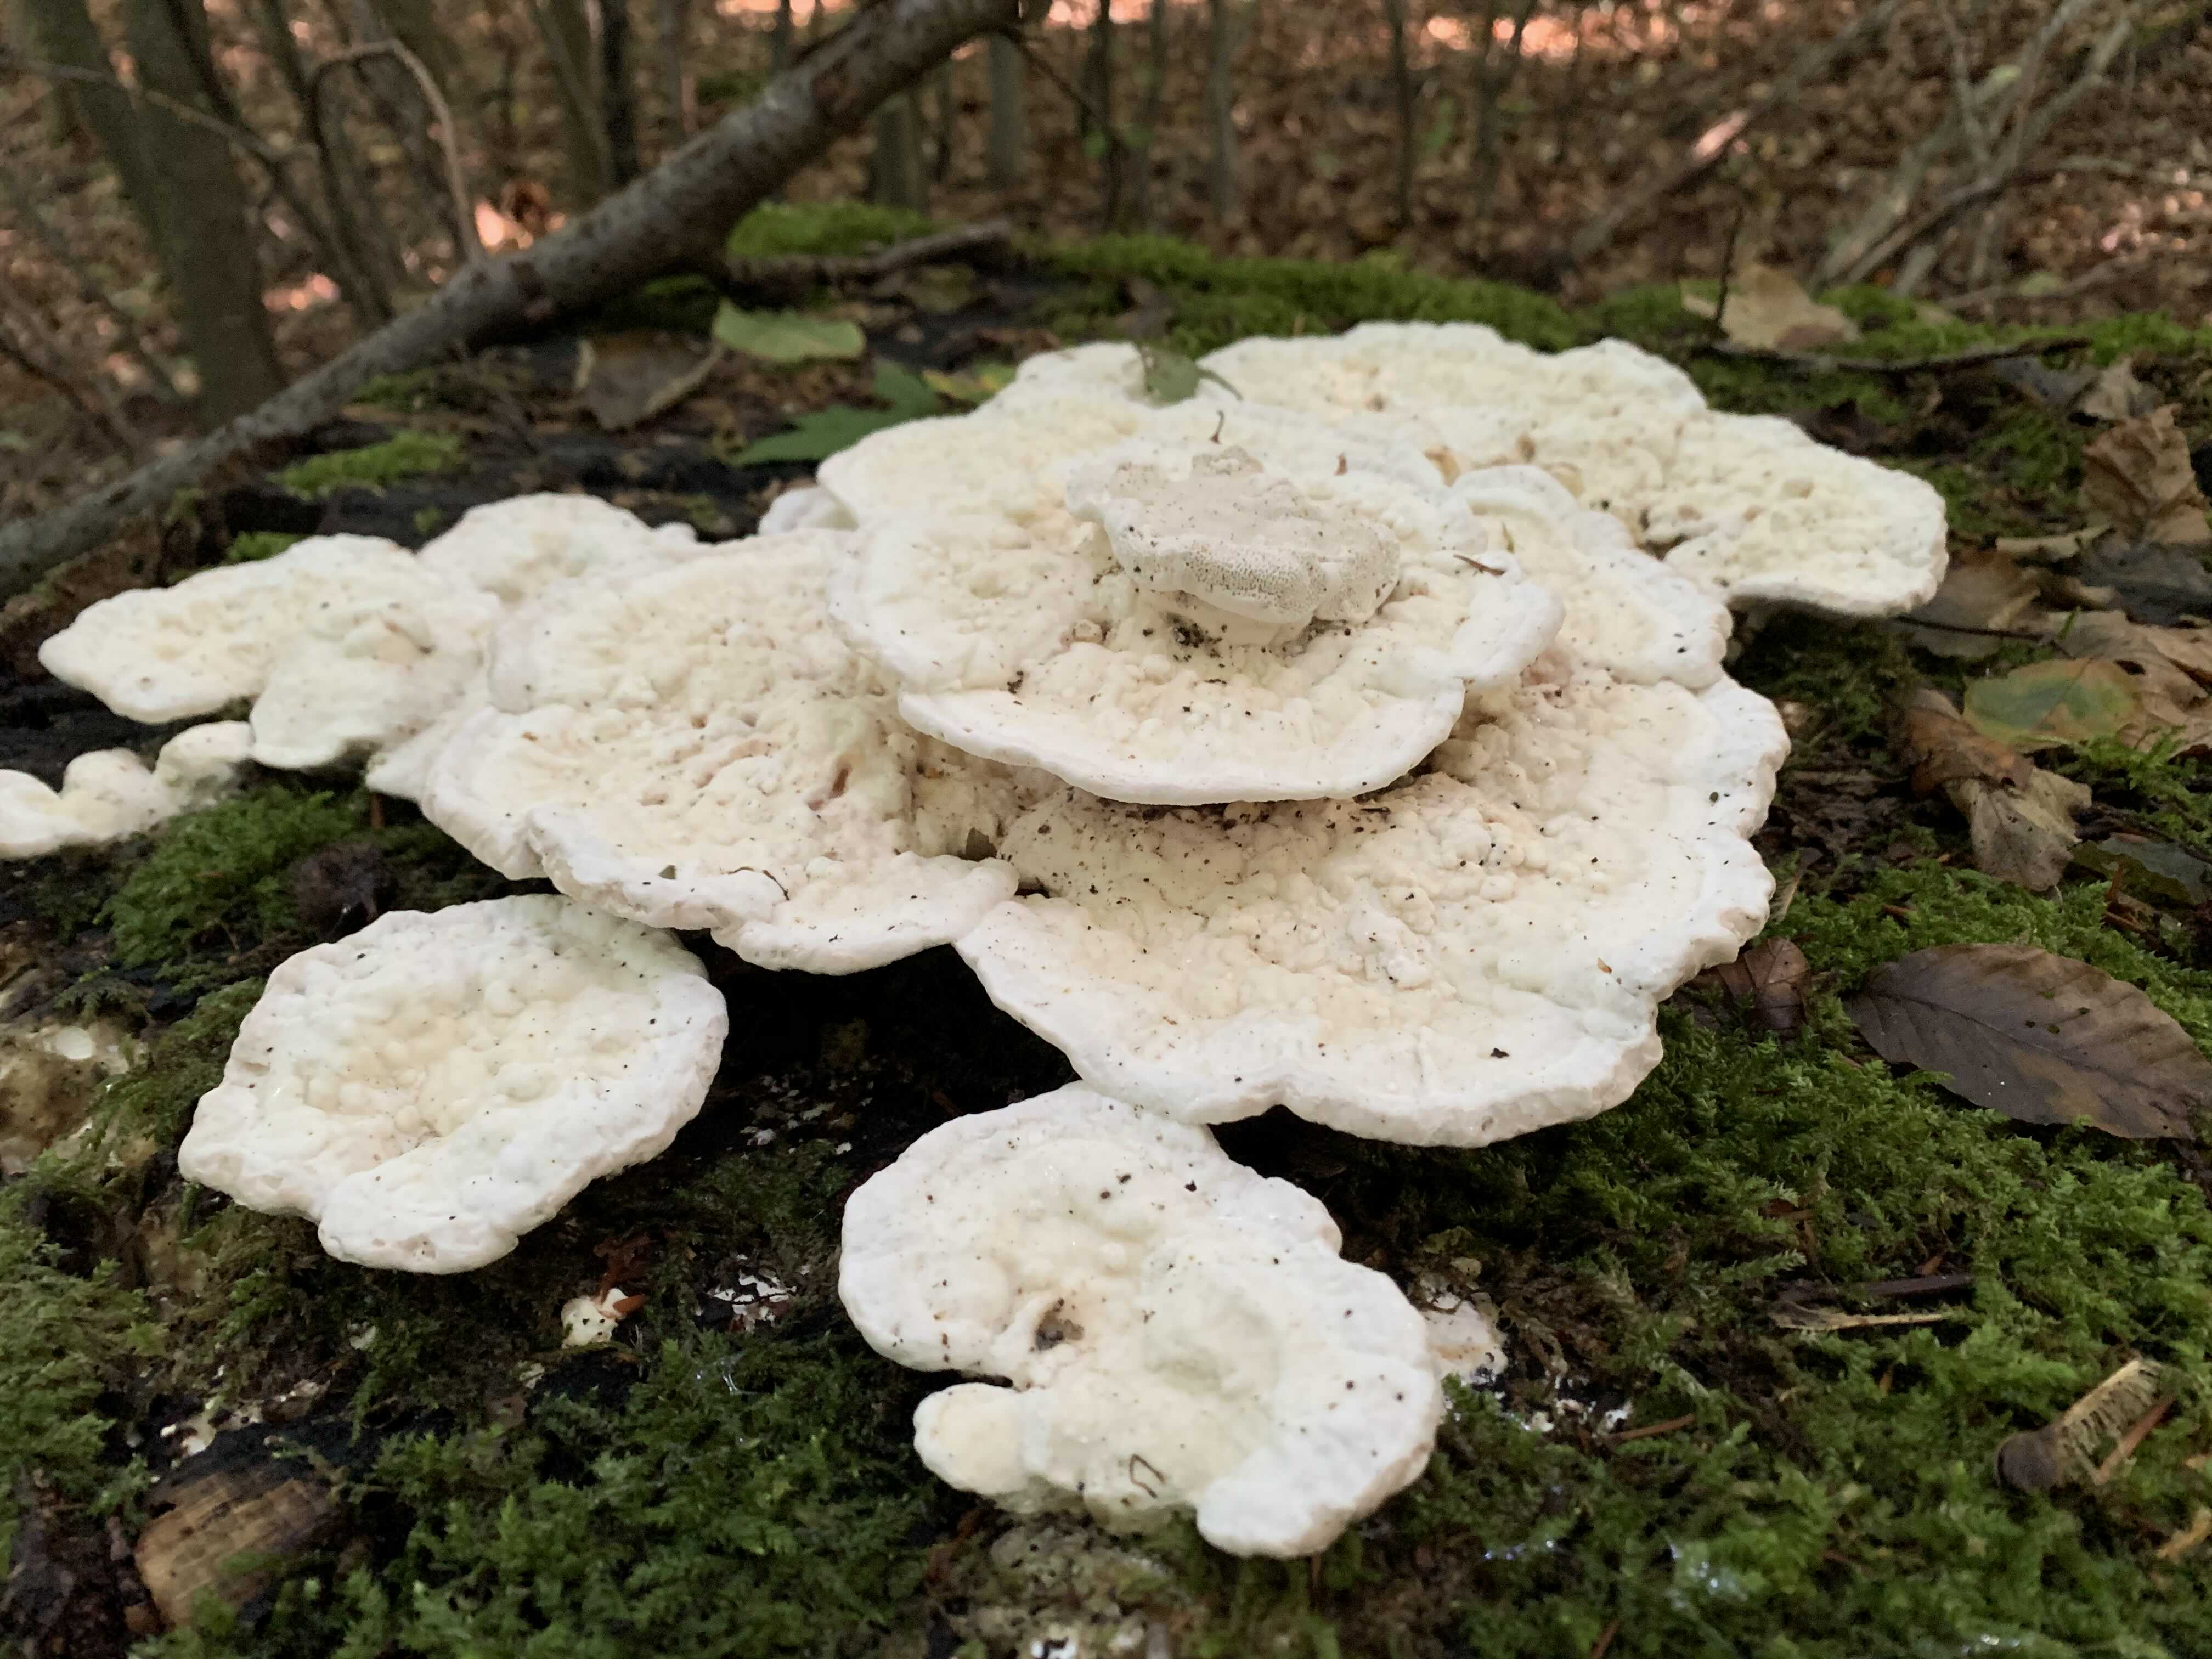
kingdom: Fungi
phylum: Basidiomycota
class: Agaricomycetes
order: Polyporales
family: Polyporaceae
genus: Trametes
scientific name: Trametes gibbosa
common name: puklet læderporesvamp
